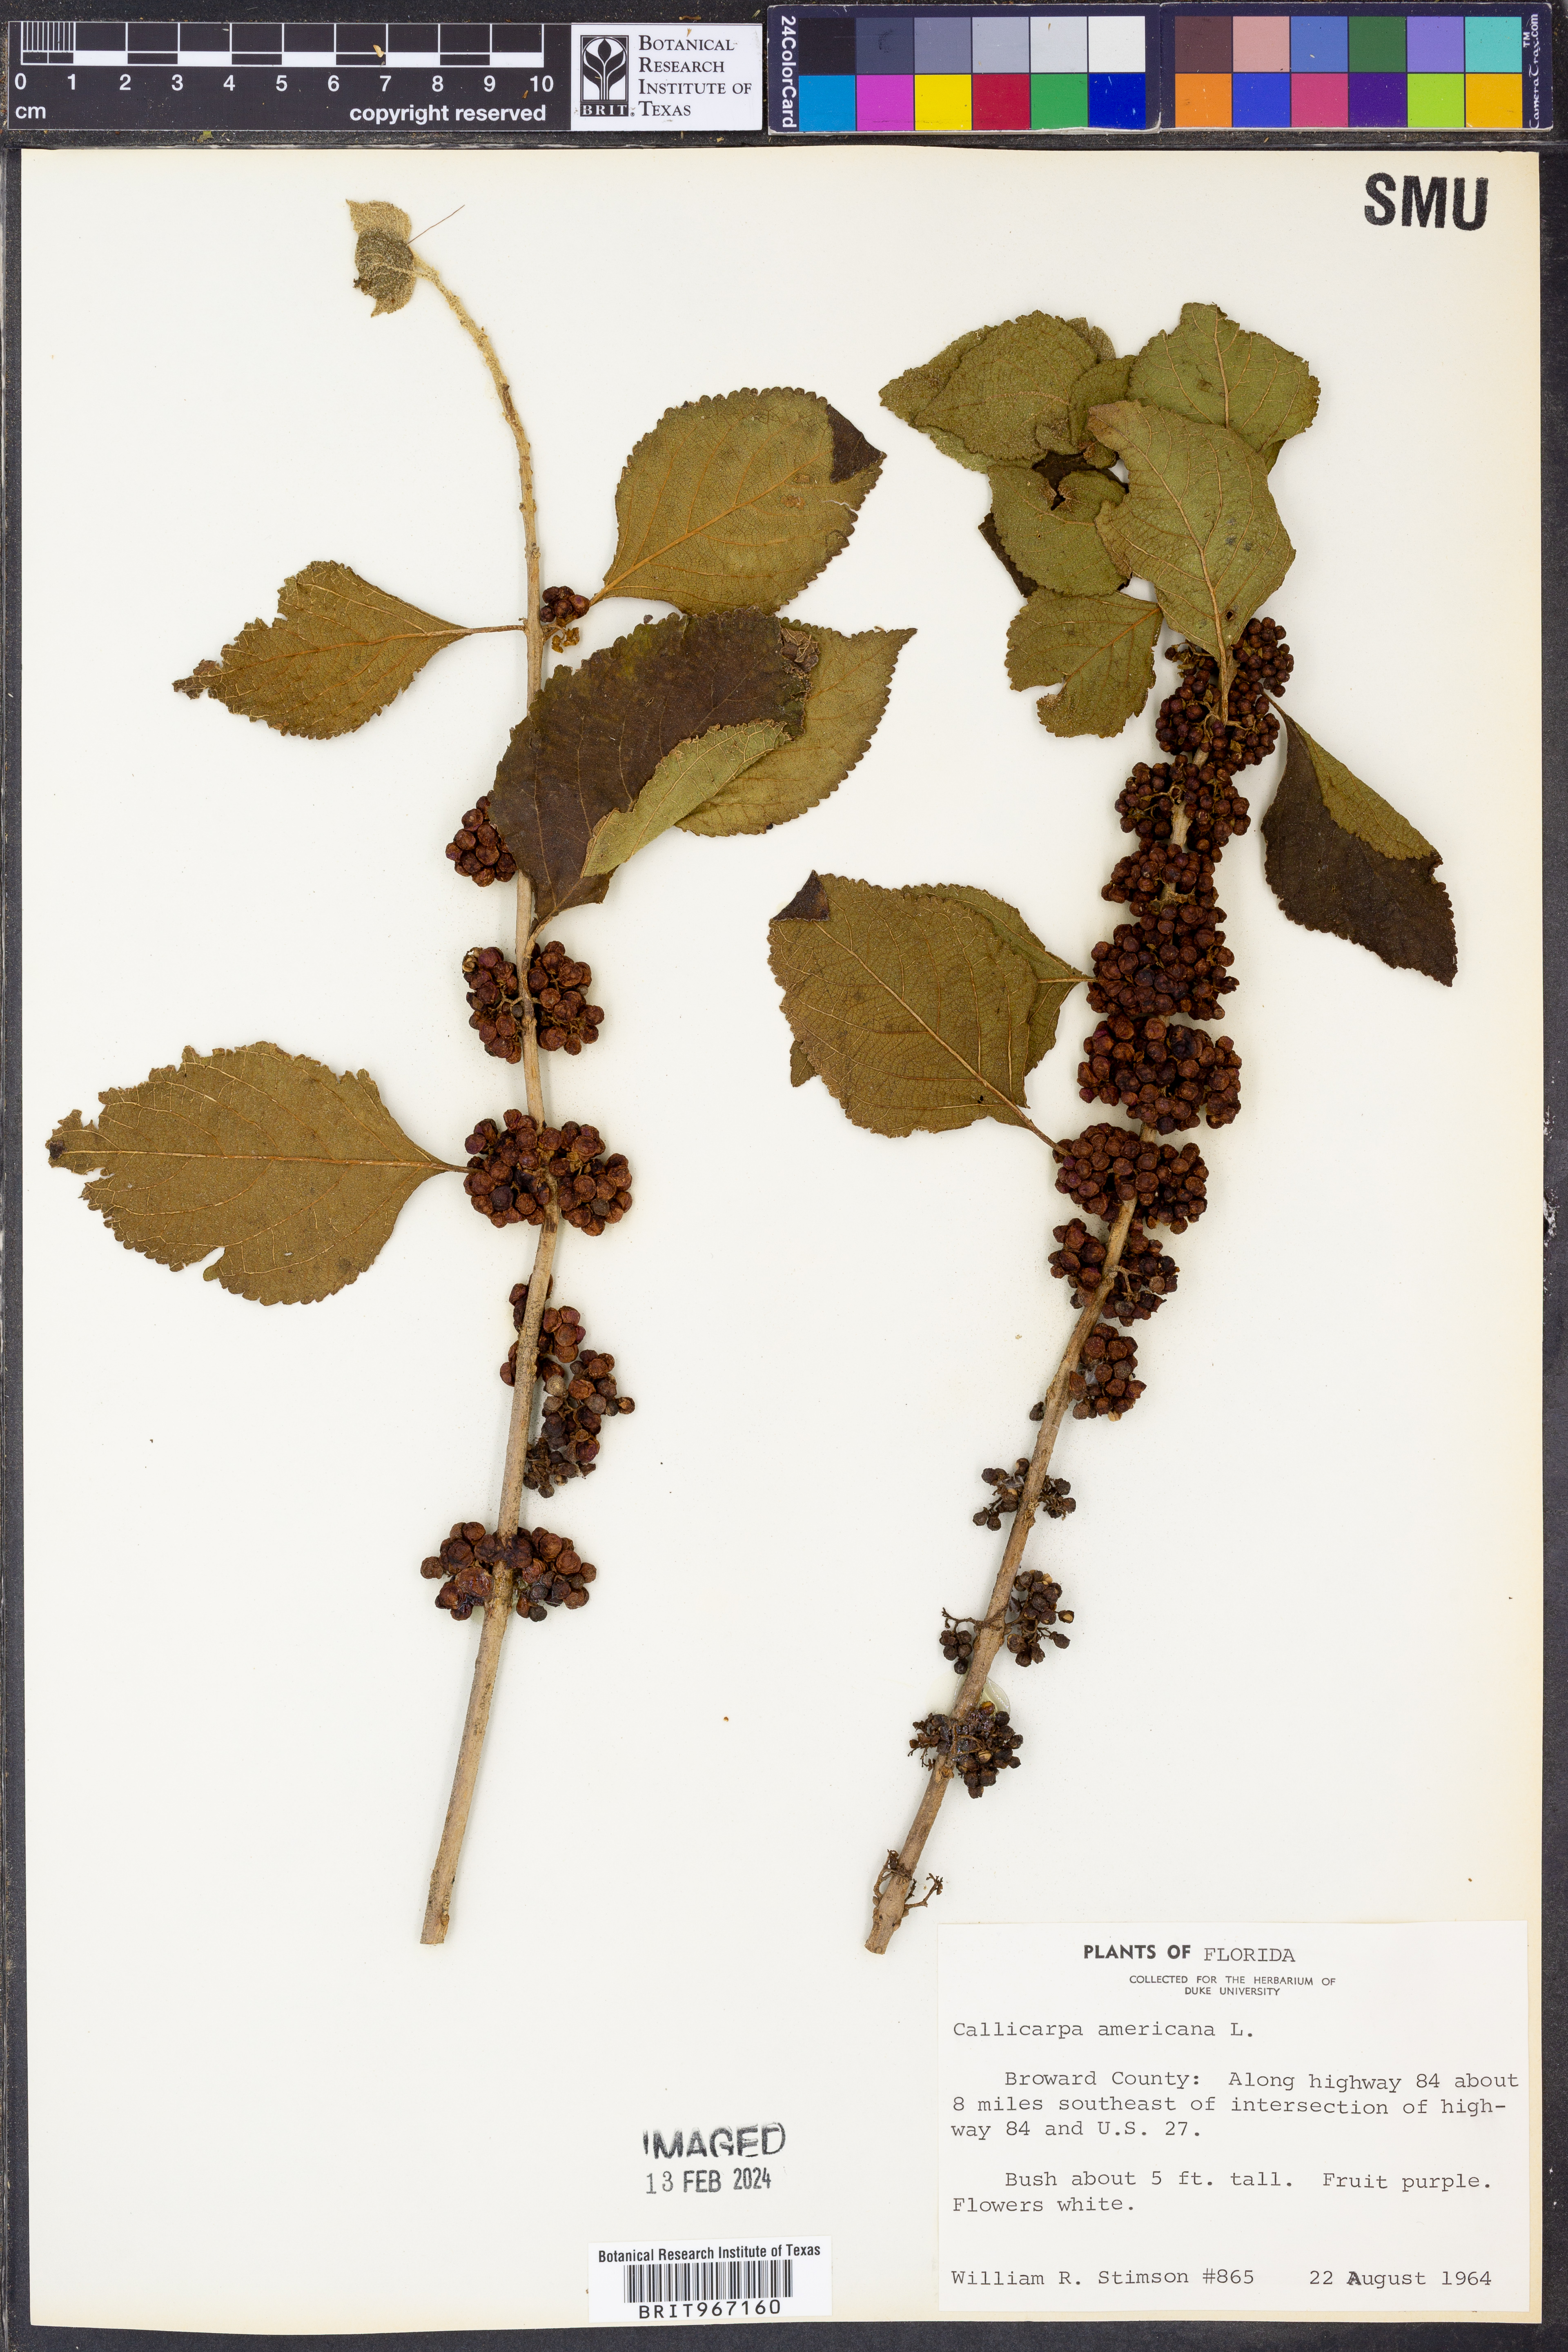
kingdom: Plantae
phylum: Tracheophyta
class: Magnoliopsida
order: Lamiales
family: Lamiaceae
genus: Callicarpa
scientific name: Callicarpa americana
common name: American beautyberry
